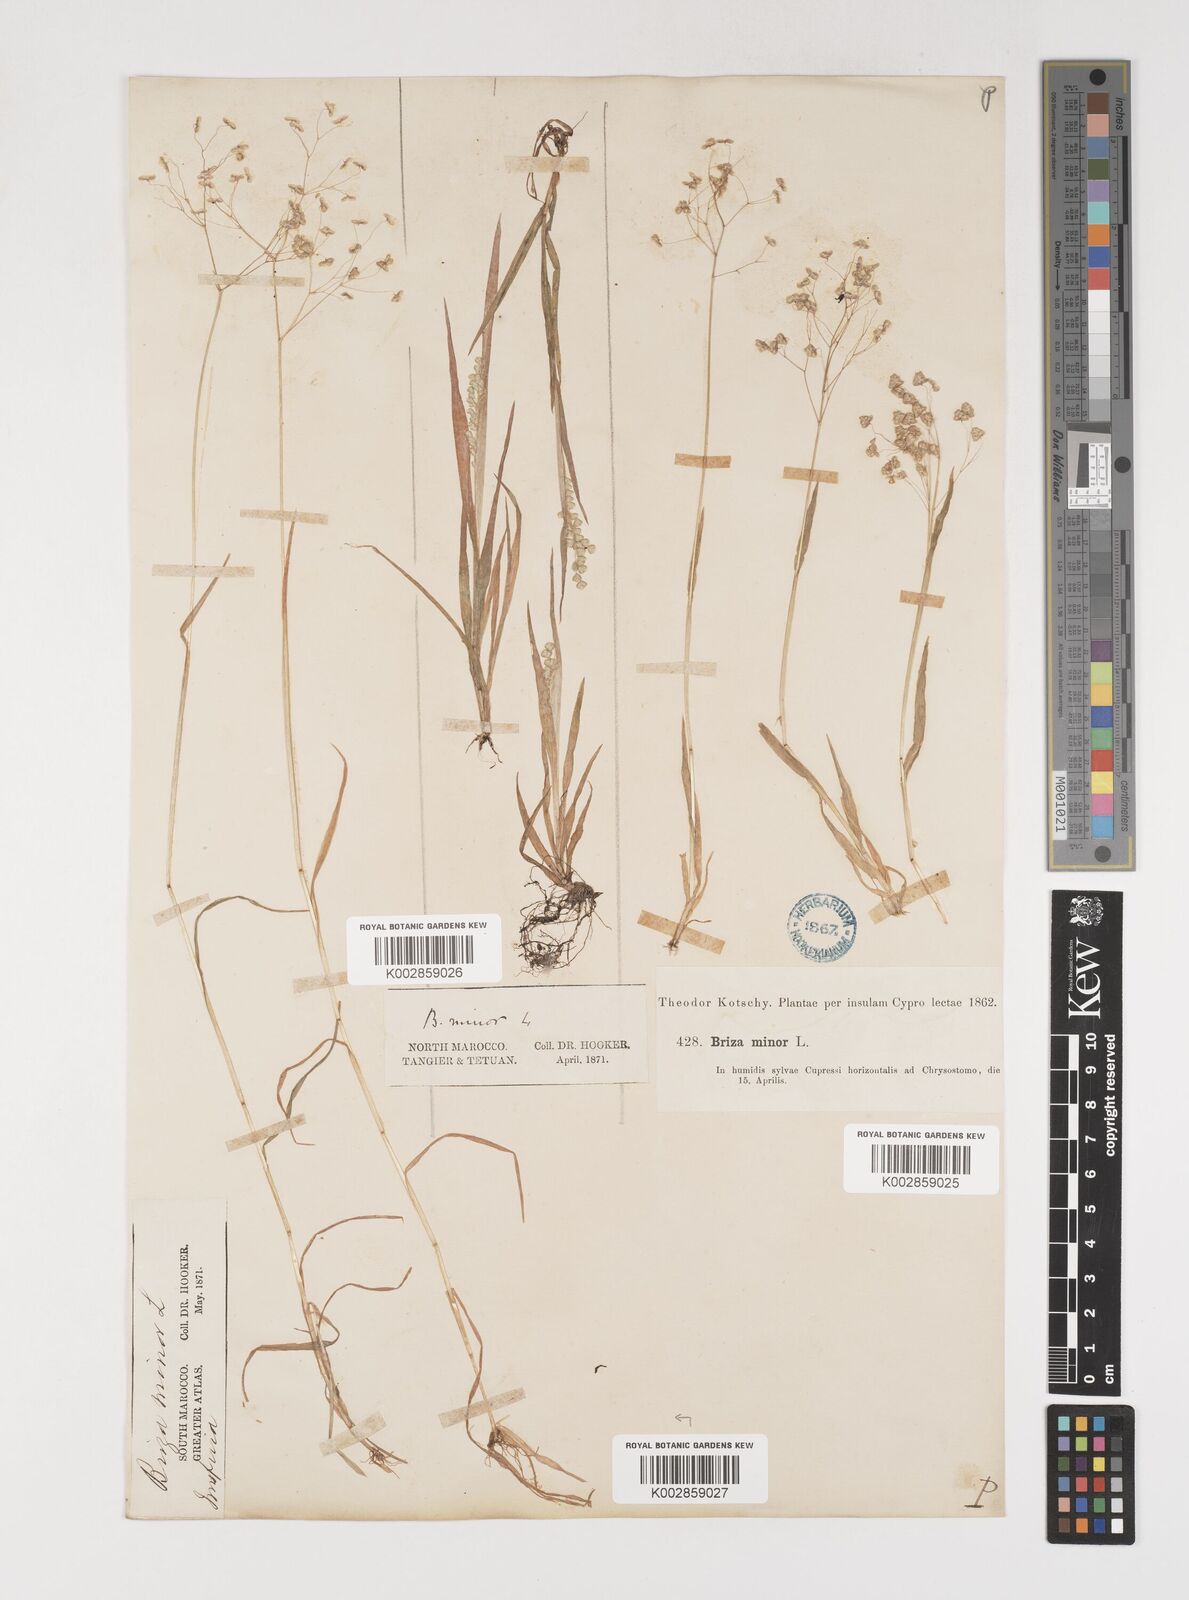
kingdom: Plantae
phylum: Tracheophyta
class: Liliopsida
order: Poales
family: Poaceae
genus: Briza
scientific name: Briza minor
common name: Lesser quaking-grass
